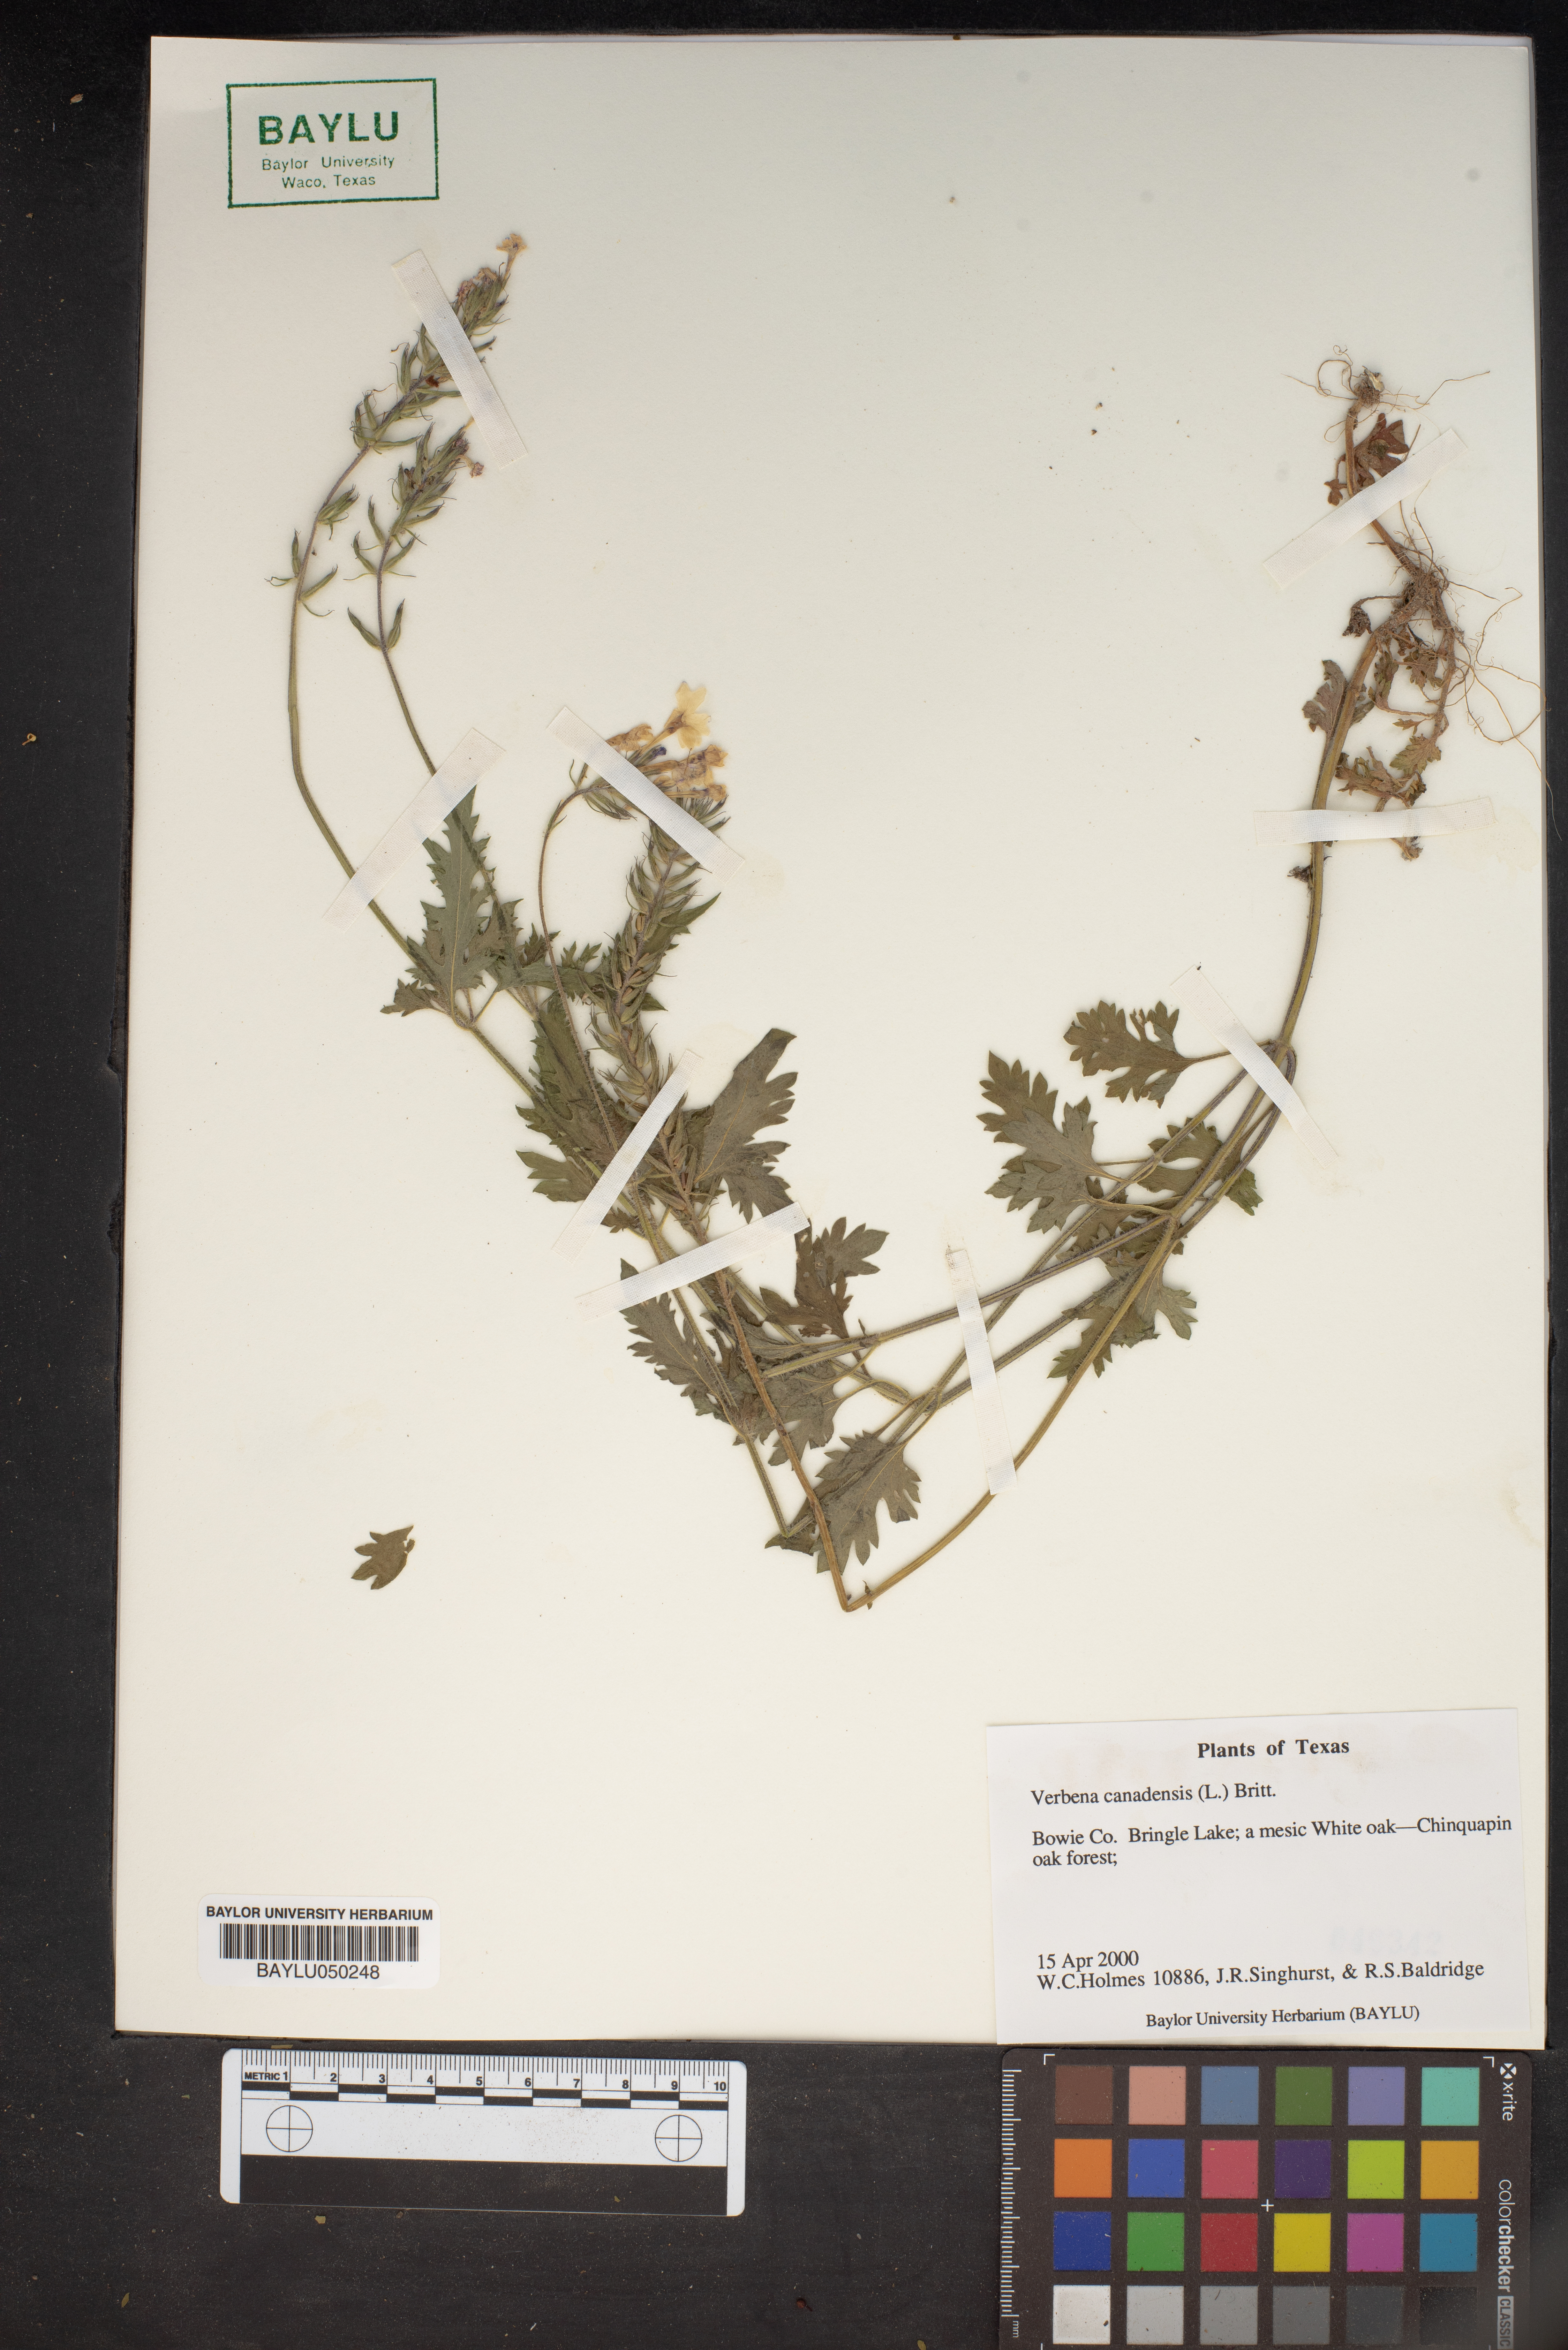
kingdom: Plantae
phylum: Tracheophyta
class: Magnoliopsida
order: Lamiales
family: Verbenaceae
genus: Verbena
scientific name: Verbena canadensis
